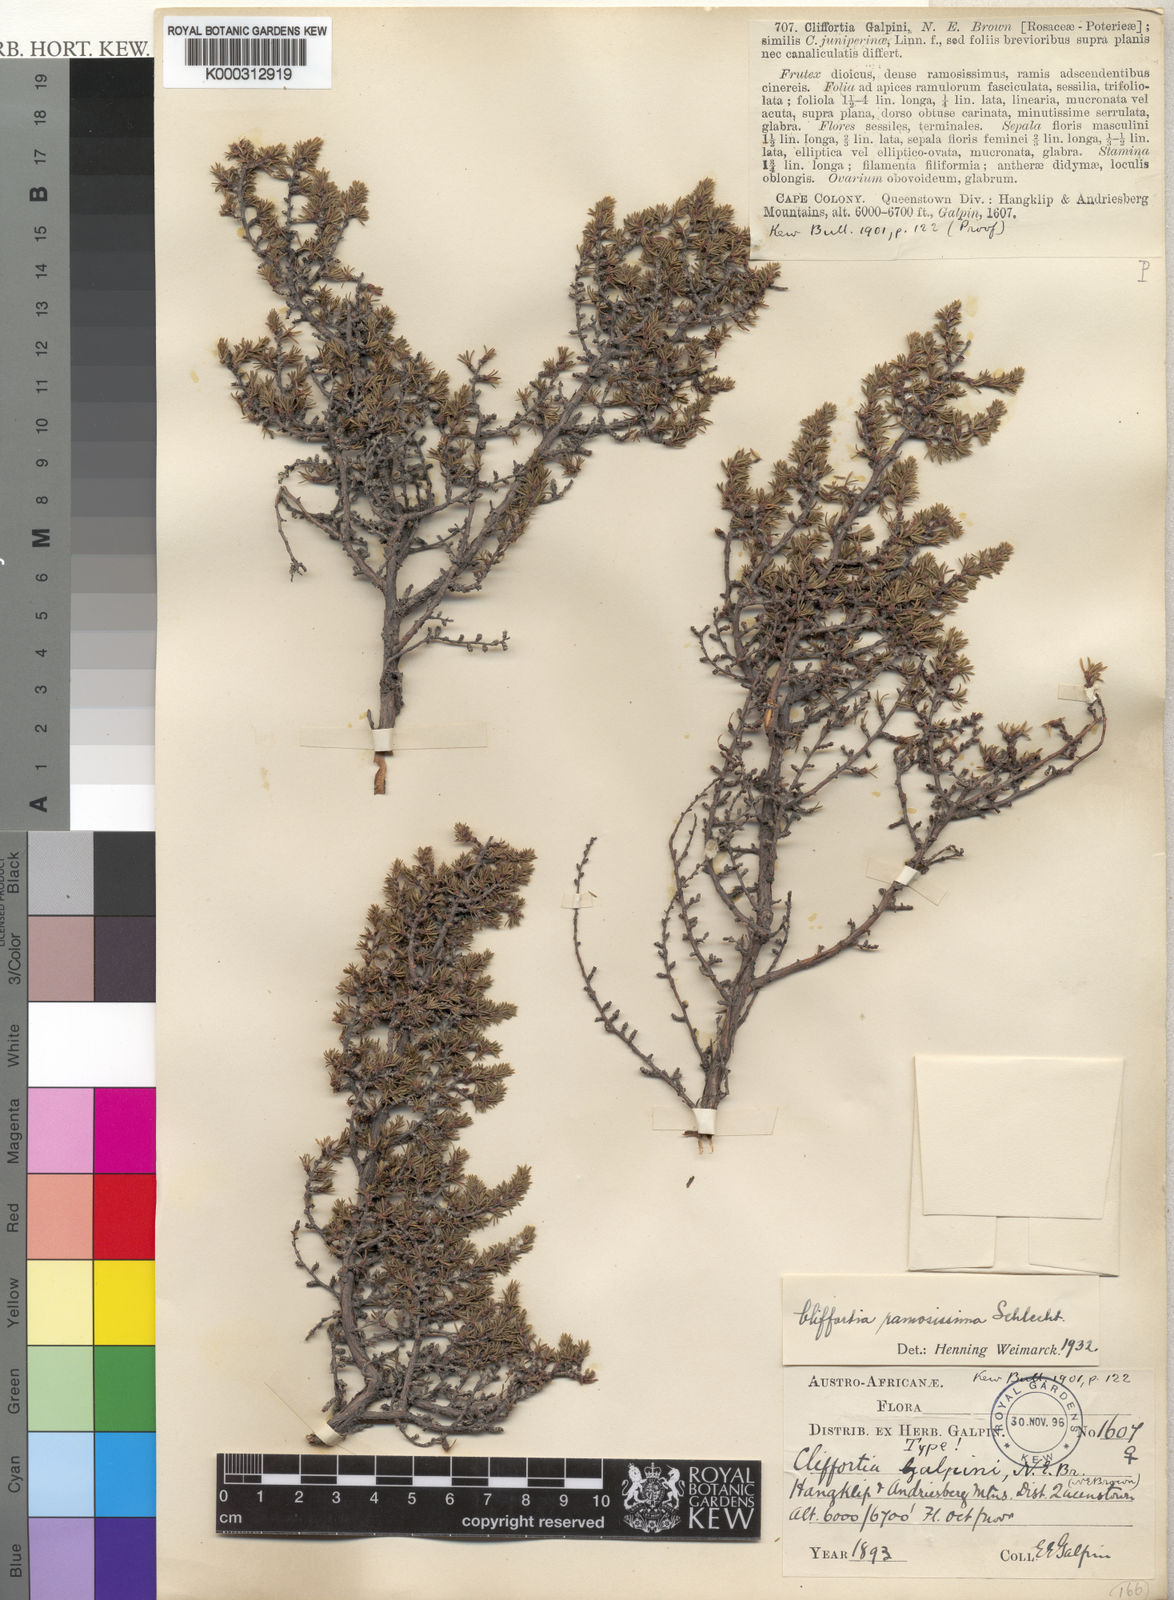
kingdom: Plantae
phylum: Tracheophyta
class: Magnoliopsida
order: Rosales
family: Rosaceae
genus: Cliffortia
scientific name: Cliffortia ramosissima
